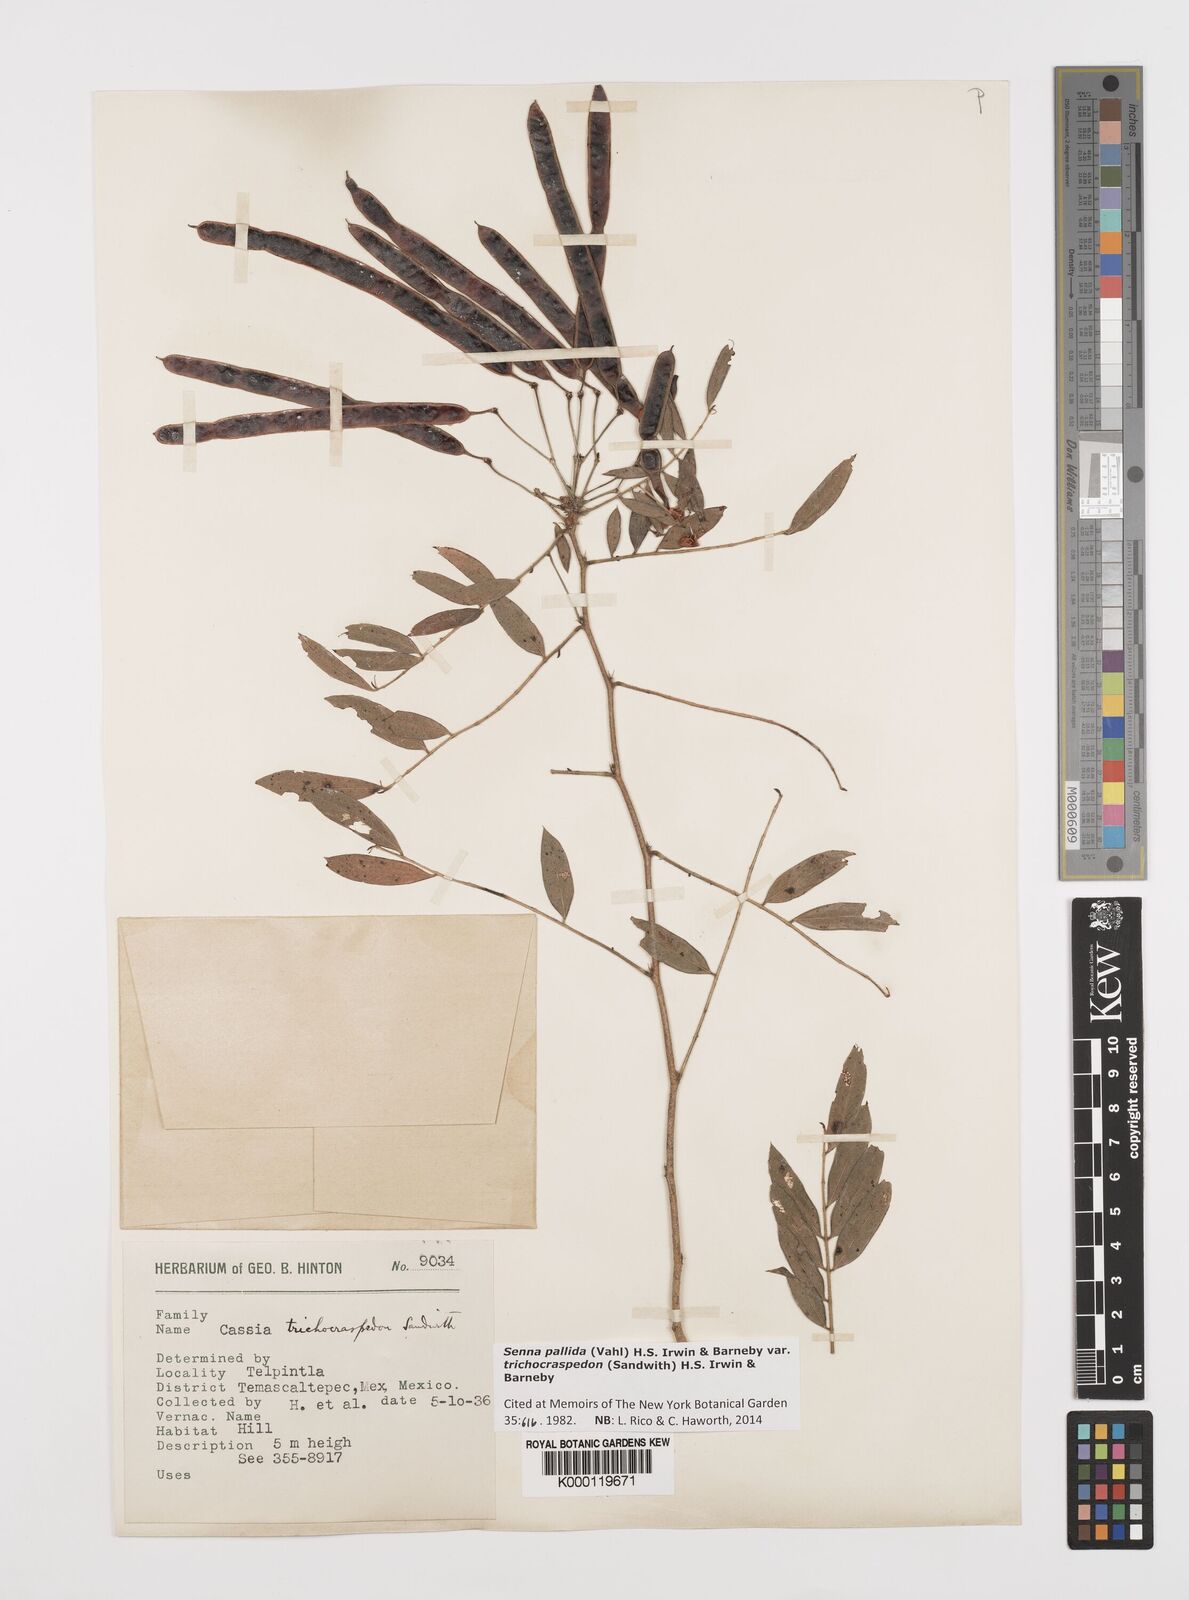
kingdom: Plantae
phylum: Tracheophyta
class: Magnoliopsida
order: Fabales
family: Fabaceae
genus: Senna
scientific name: Senna pallida
